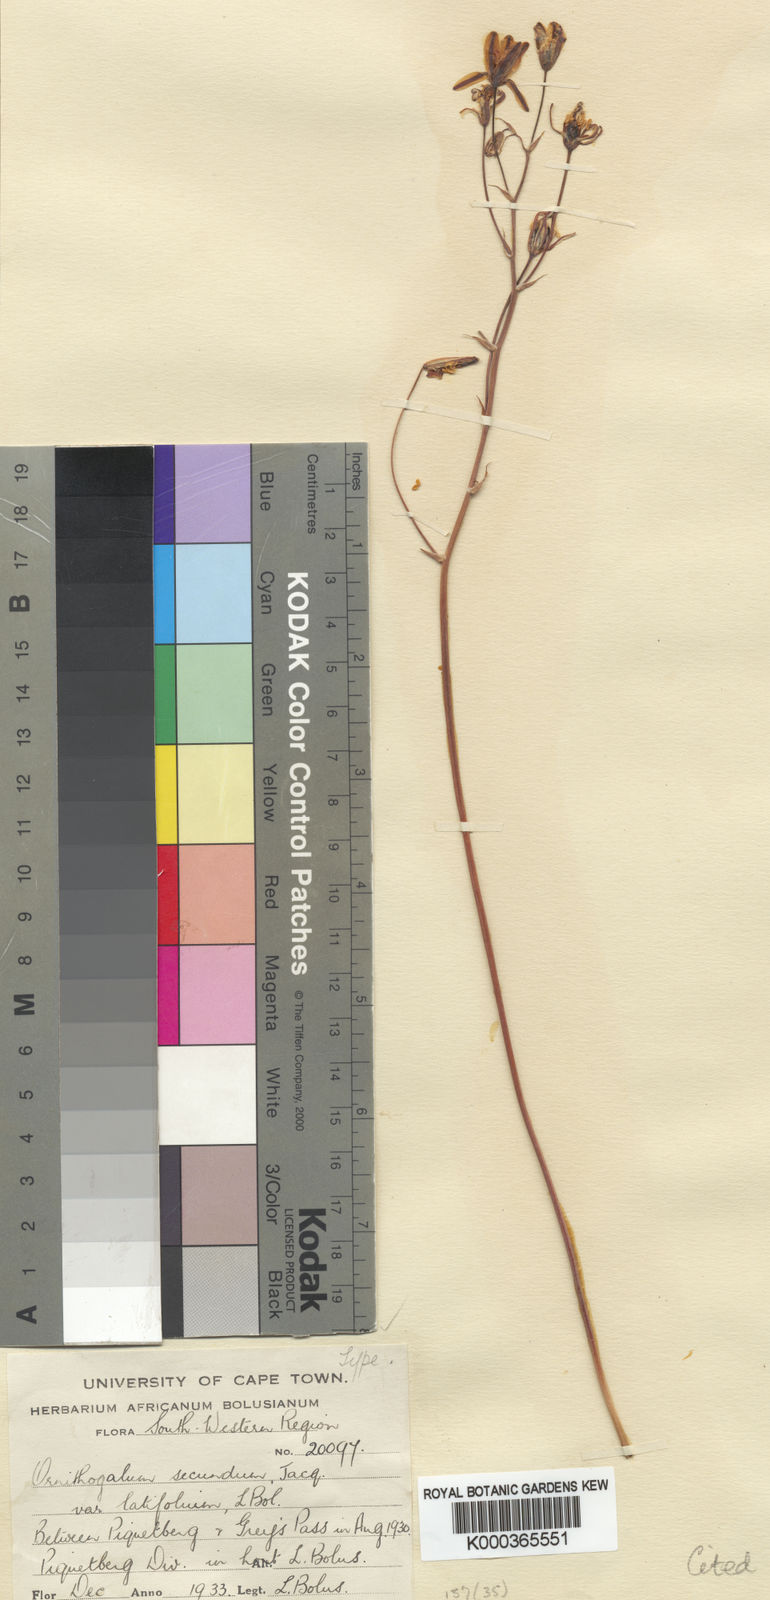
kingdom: Plantae
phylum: Tracheophyta
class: Liliopsida
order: Asparagales
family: Asparagaceae
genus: Albuca
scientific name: Albuca secunda
